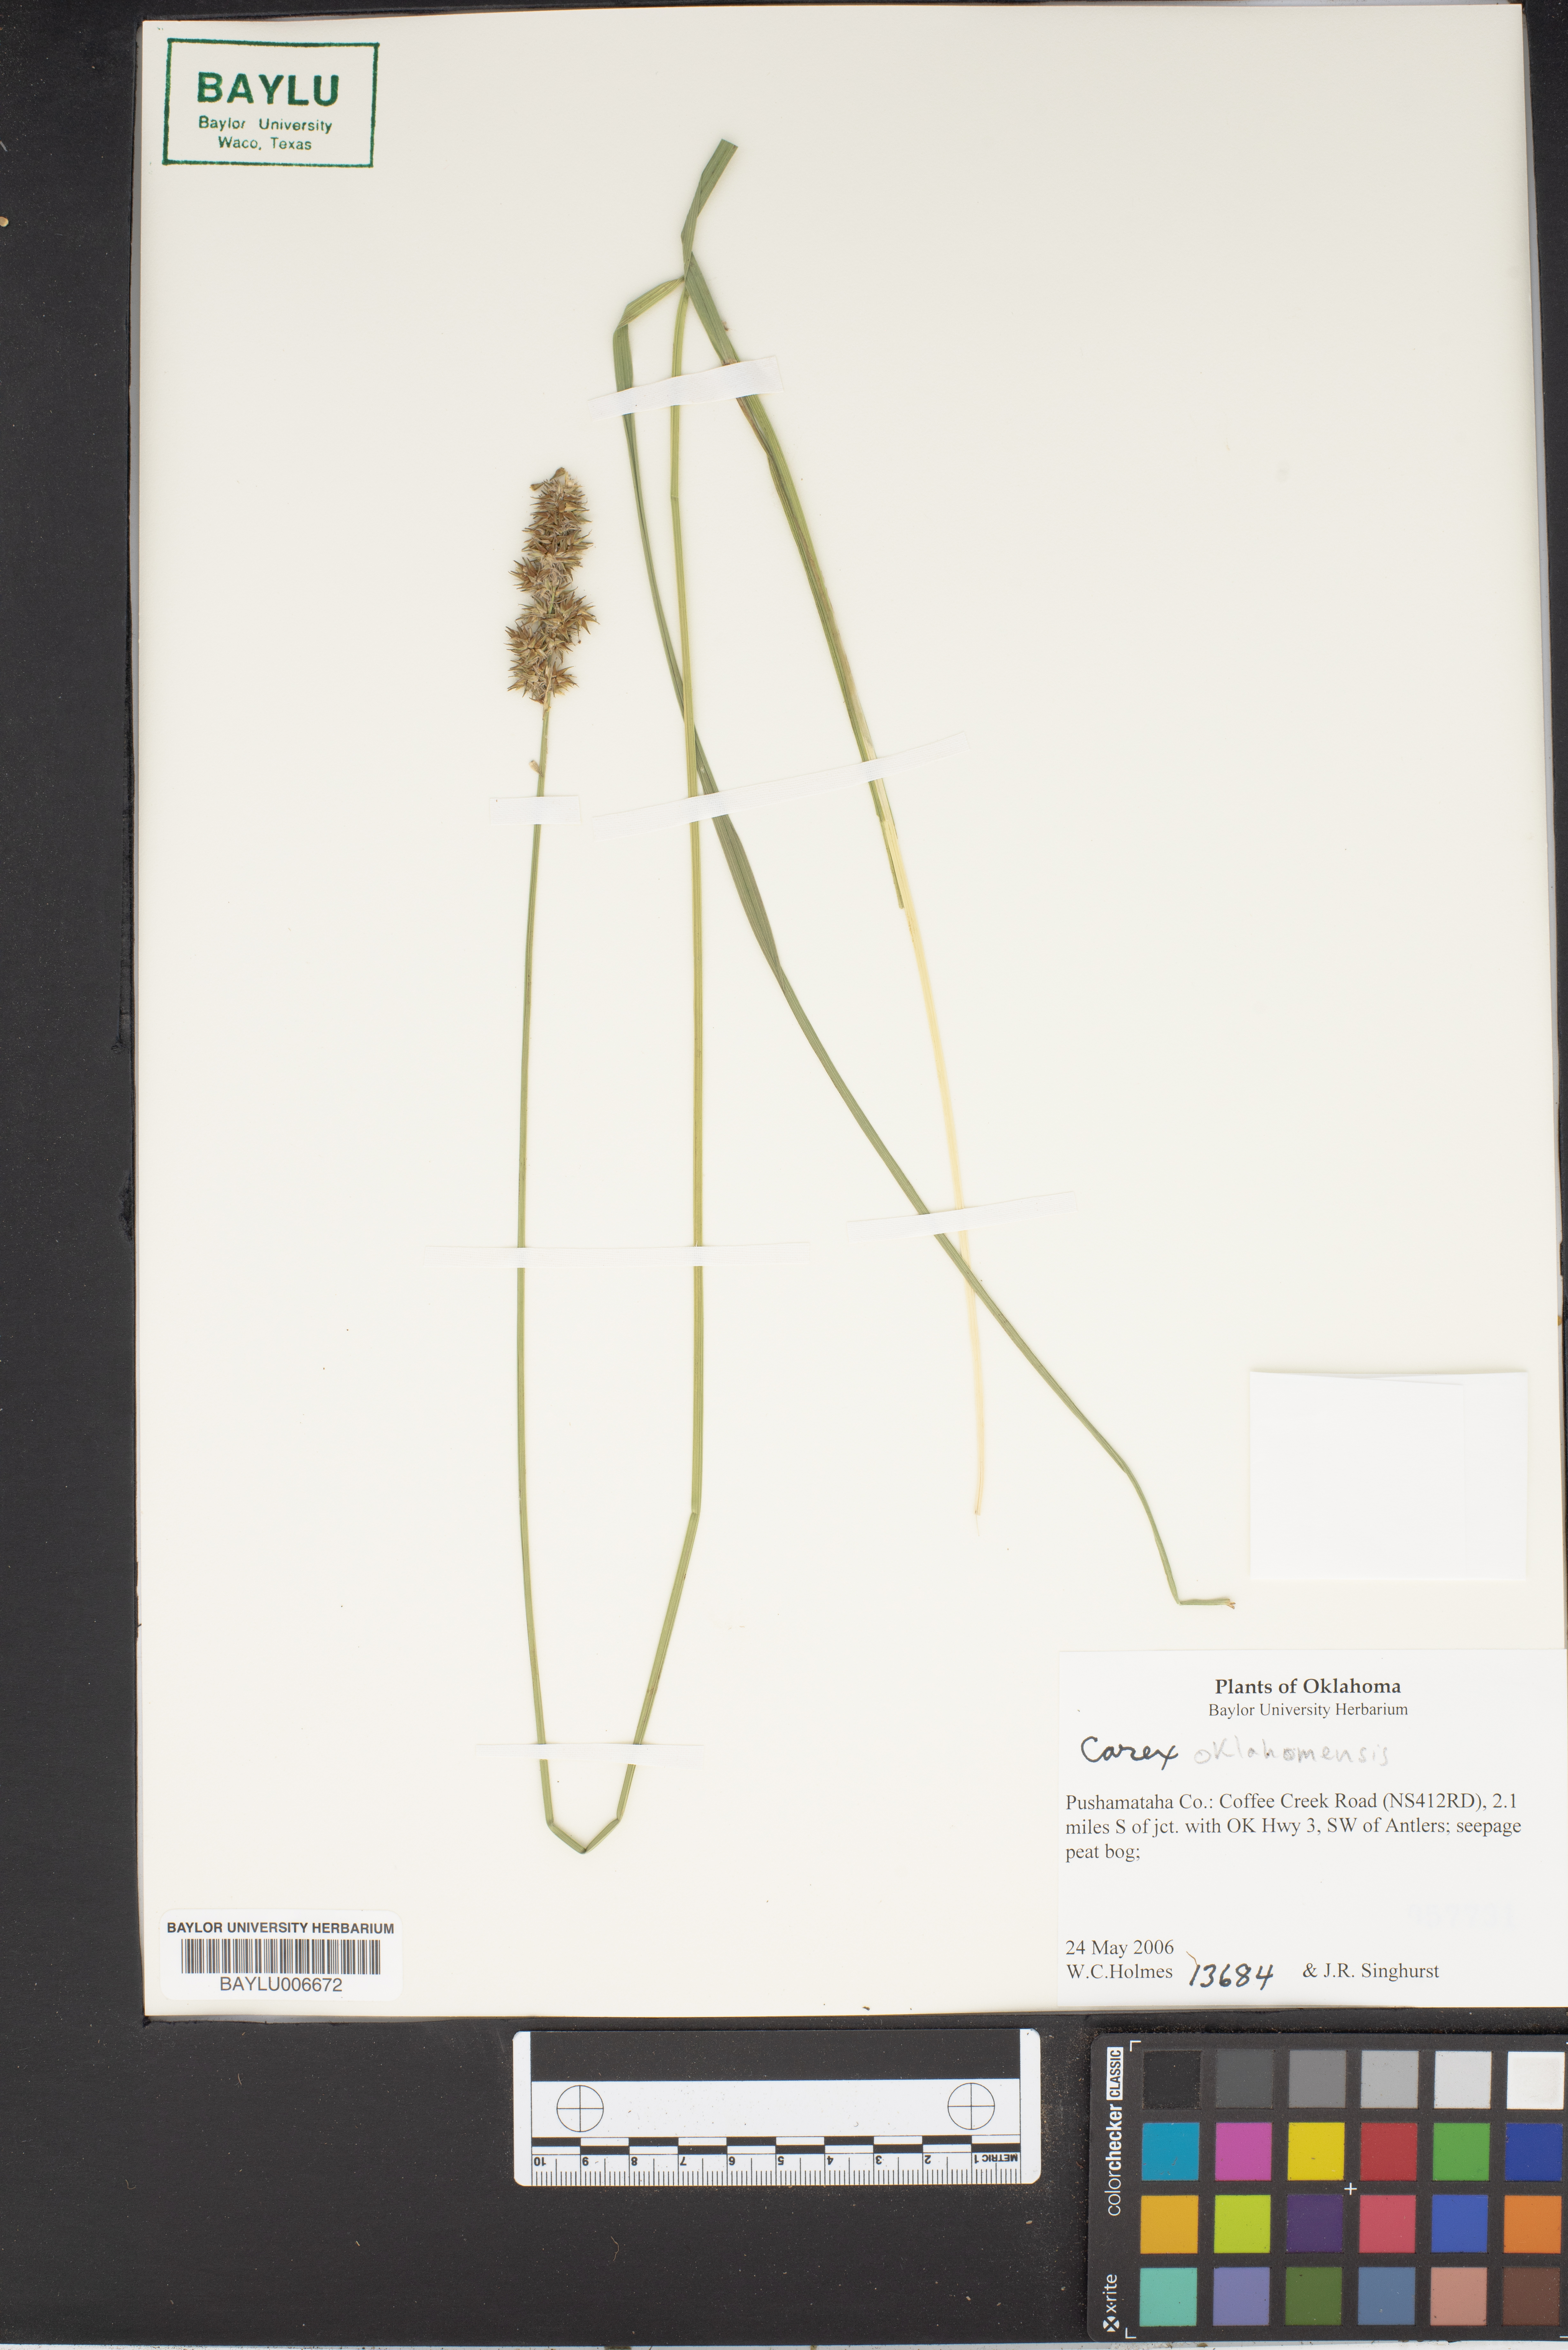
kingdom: Plantae
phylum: Tracheophyta
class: Liliopsida
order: Poales
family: Cyperaceae
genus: Carex
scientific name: Carex oklahomensis
